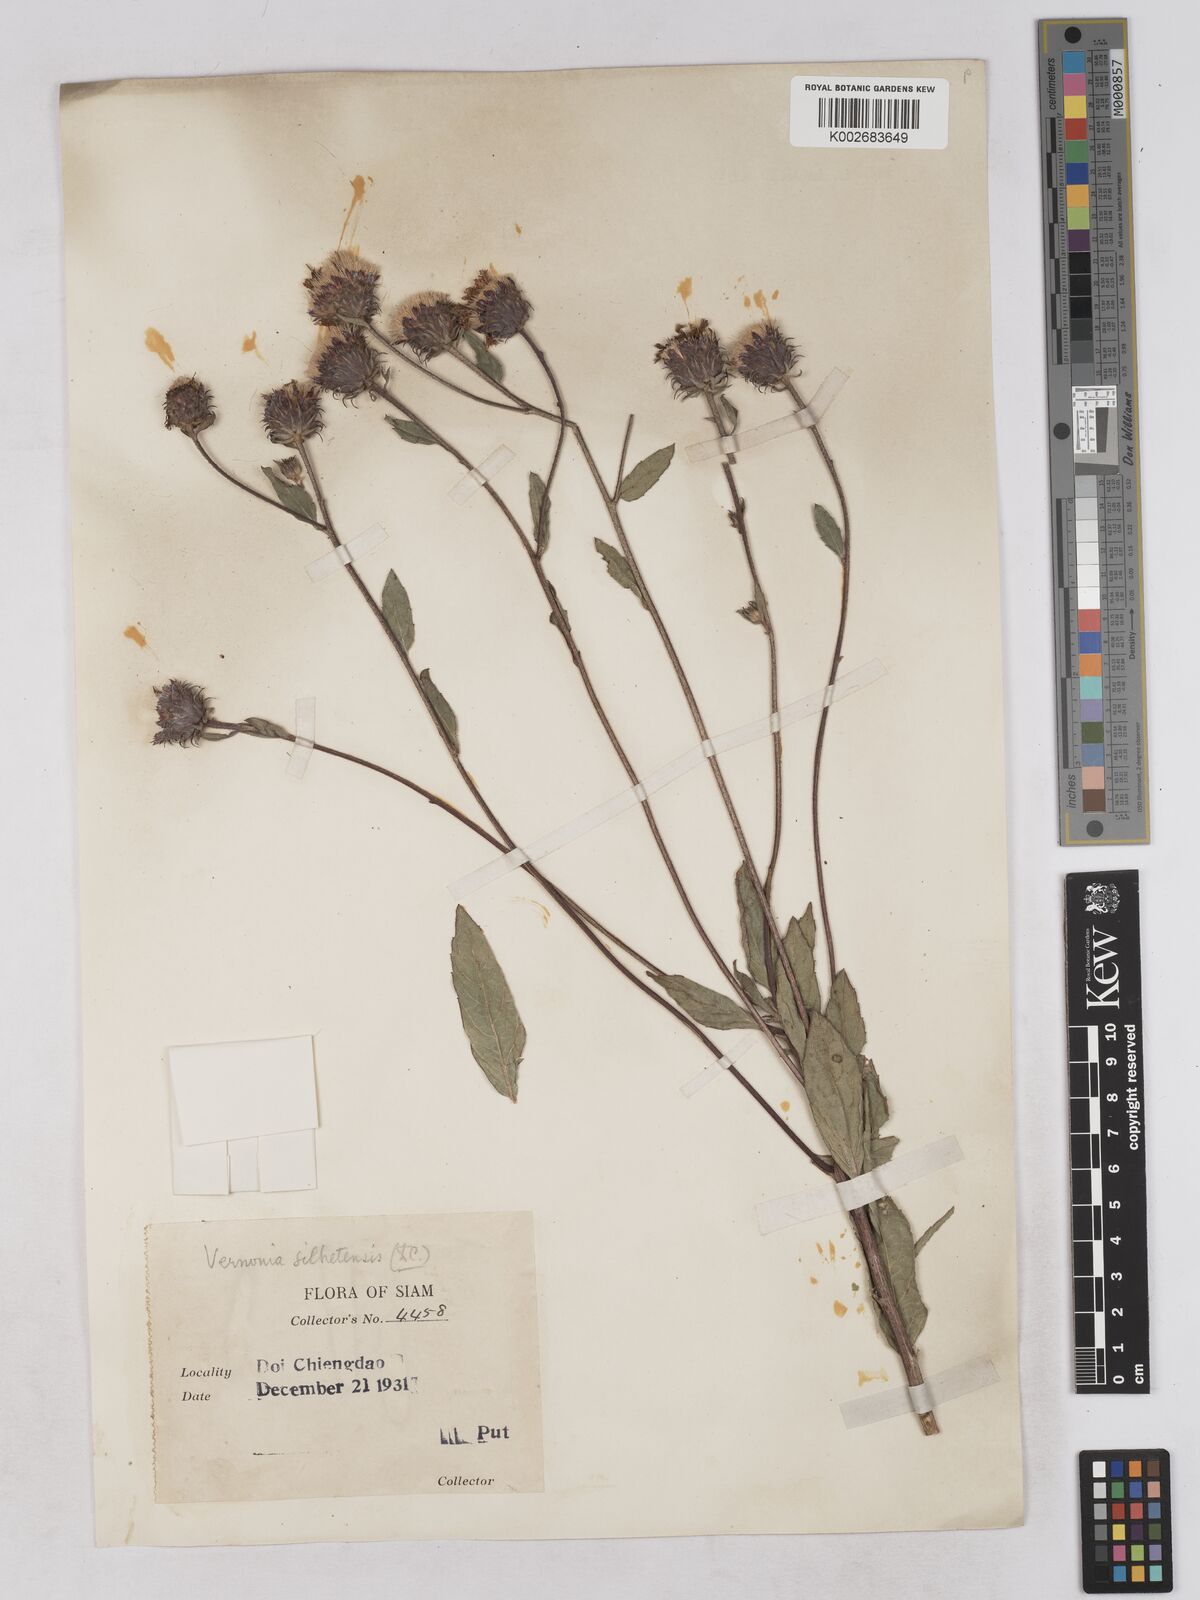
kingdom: Plantae
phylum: Tracheophyta
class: Magnoliopsida
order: Asterales
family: Asteraceae
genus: Acilepis
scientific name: Acilepis silhetensis
